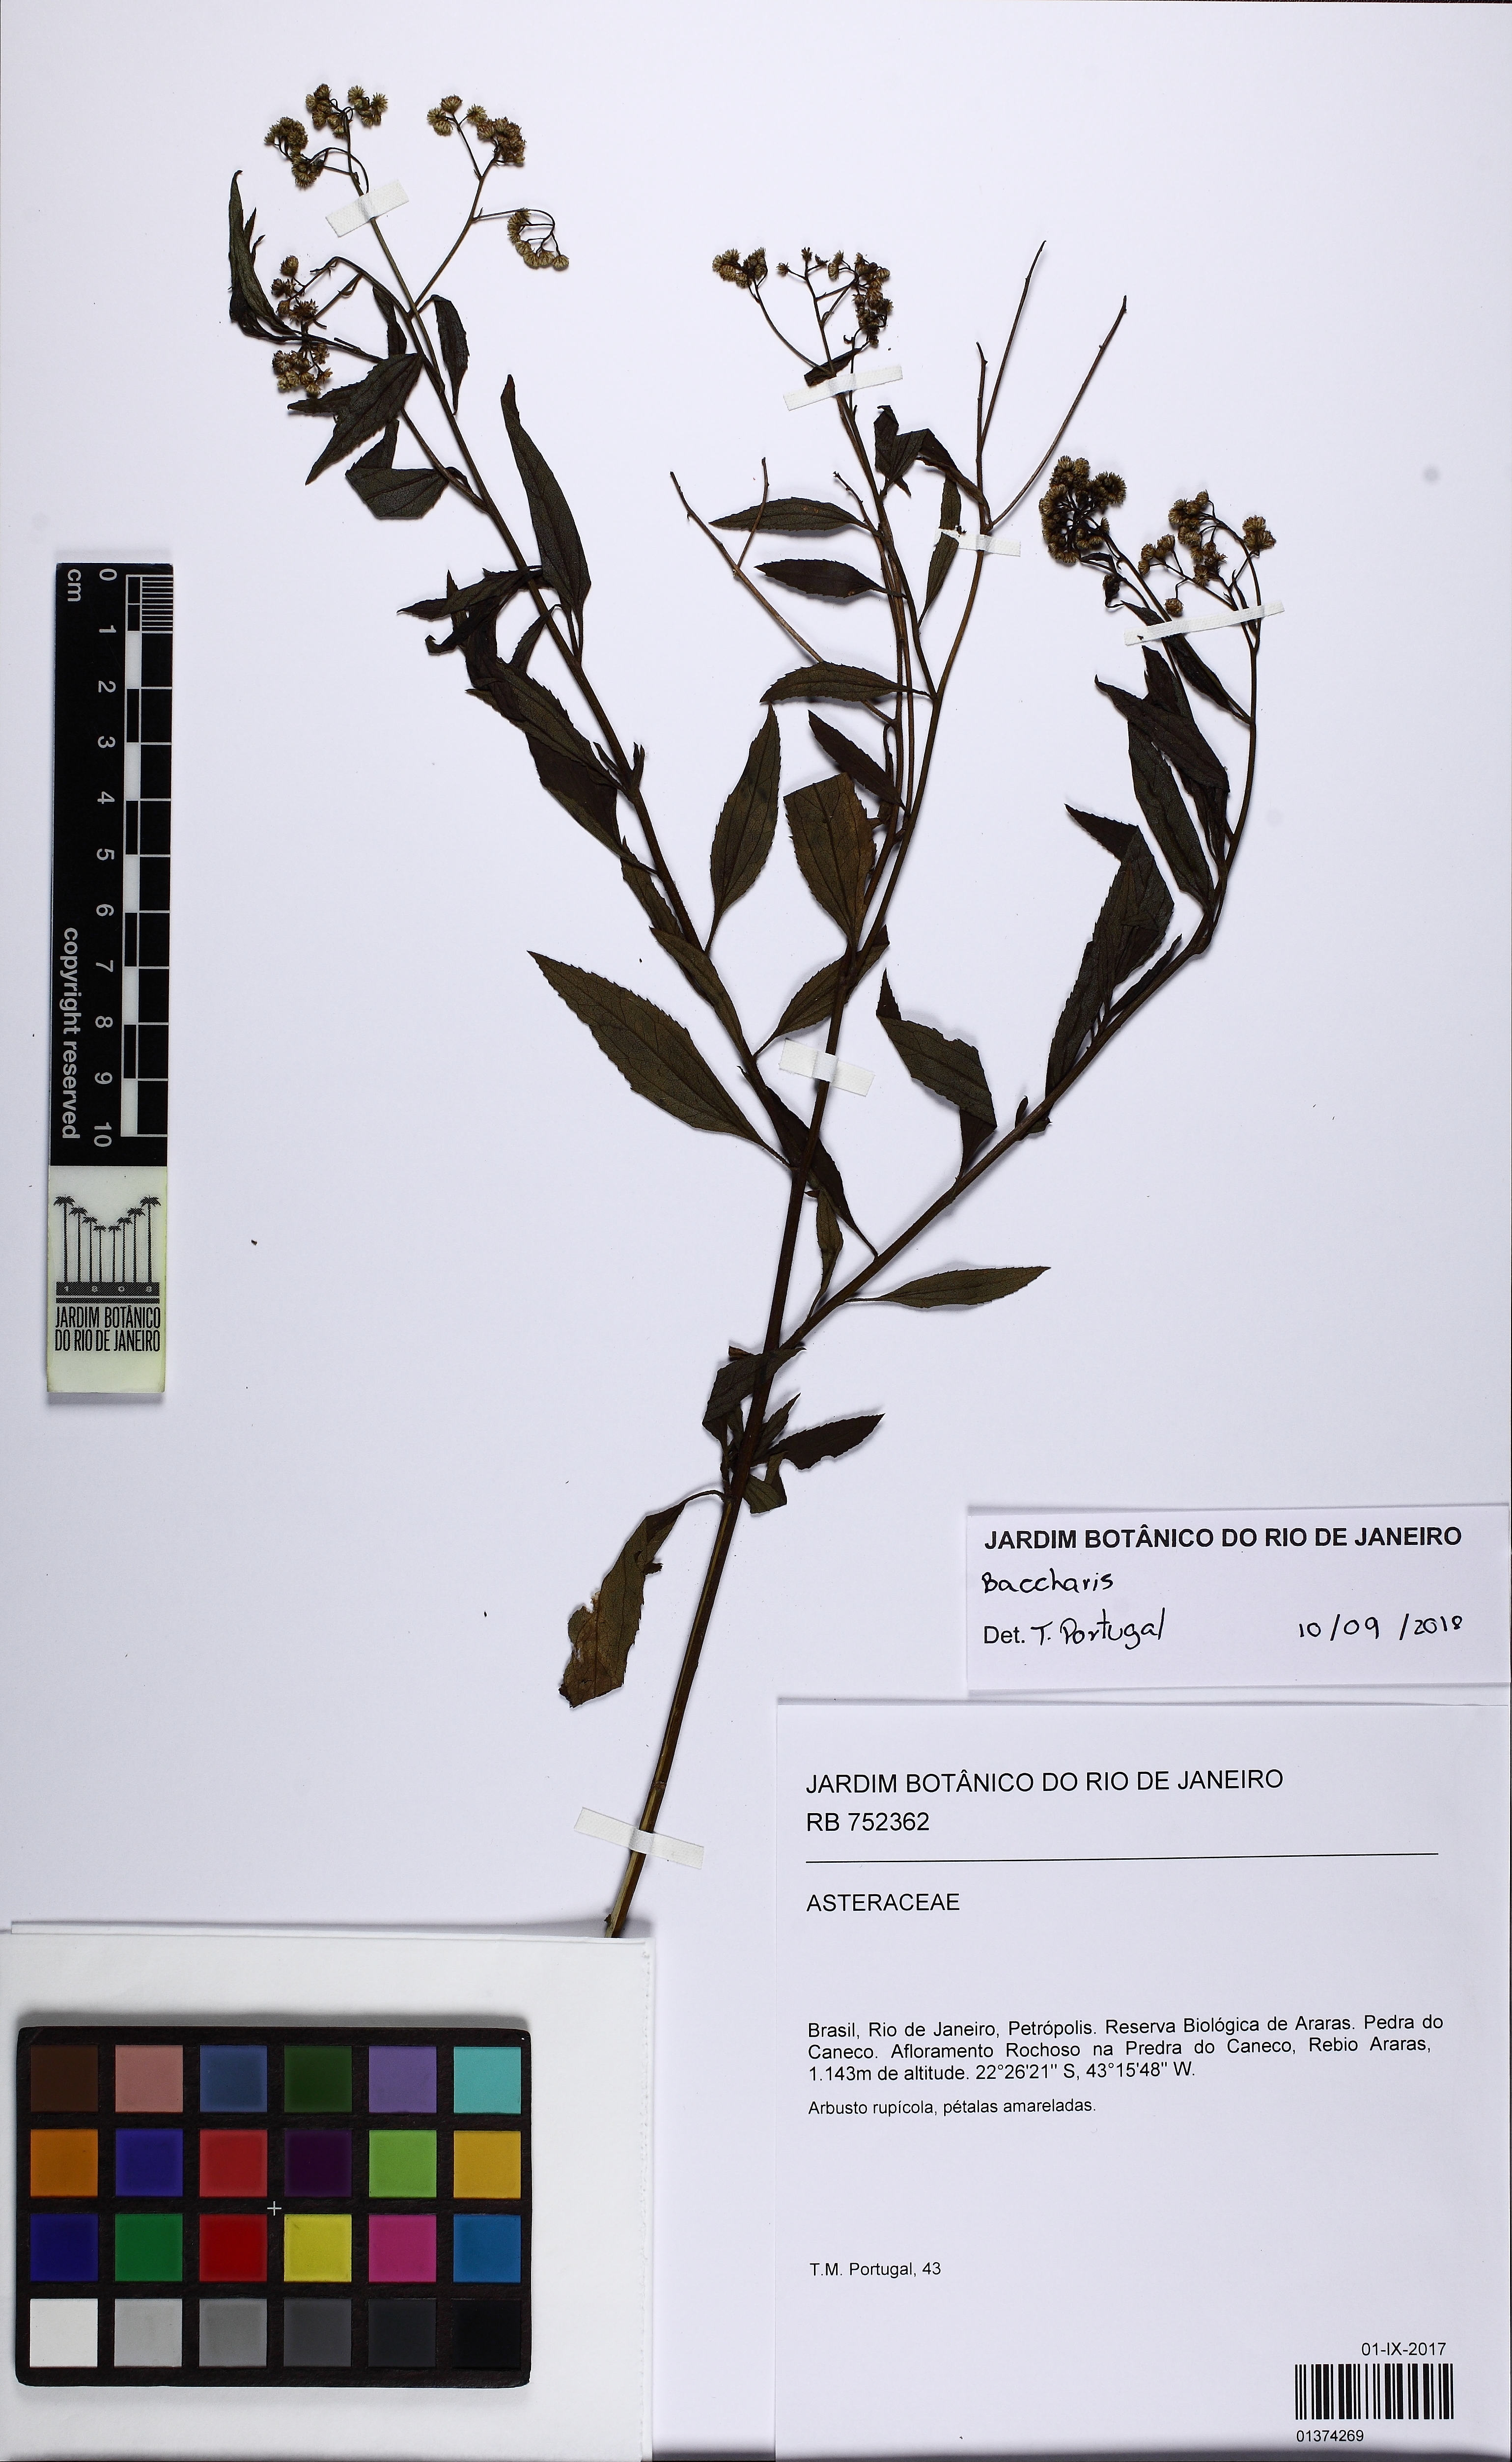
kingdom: Plantae
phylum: Tracheophyta
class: Magnoliopsida
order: Asterales
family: Asteraceae
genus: Baccharis
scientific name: Baccharis serrulata
